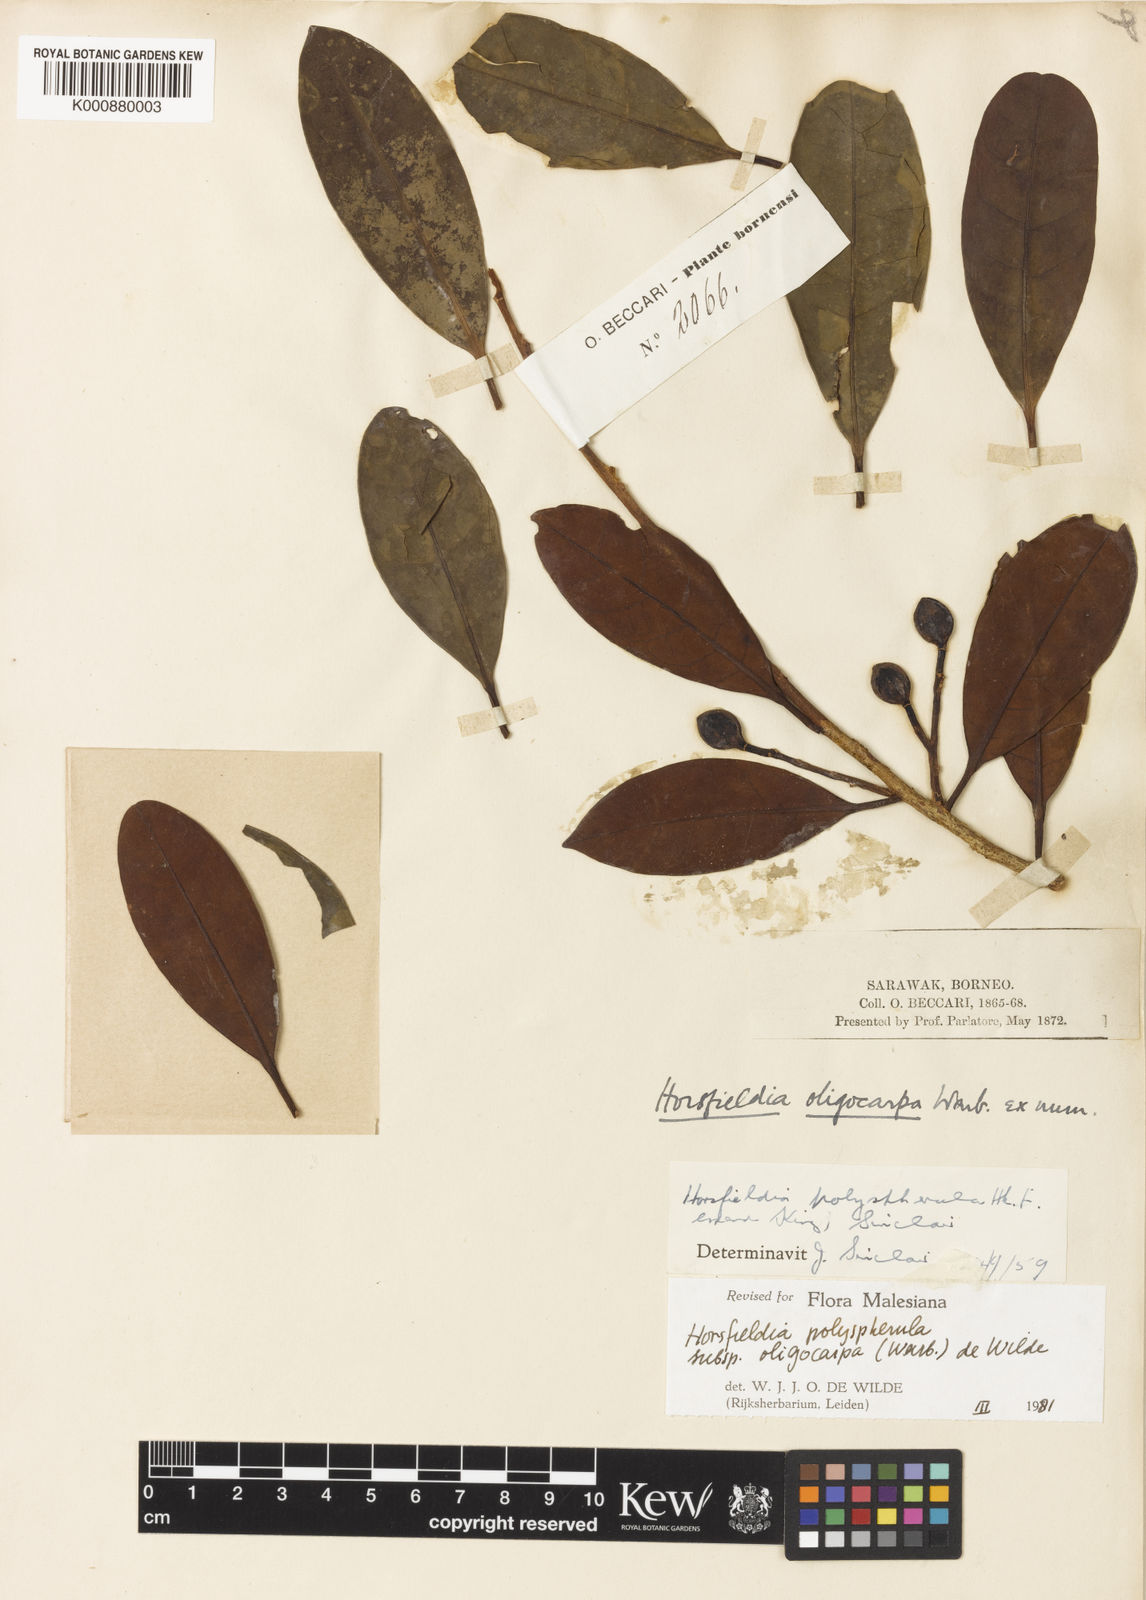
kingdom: Plantae
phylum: Tracheophyta
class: Magnoliopsida
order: Magnoliales
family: Myristicaceae
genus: Horsfieldia
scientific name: Horsfieldia polyspherula
